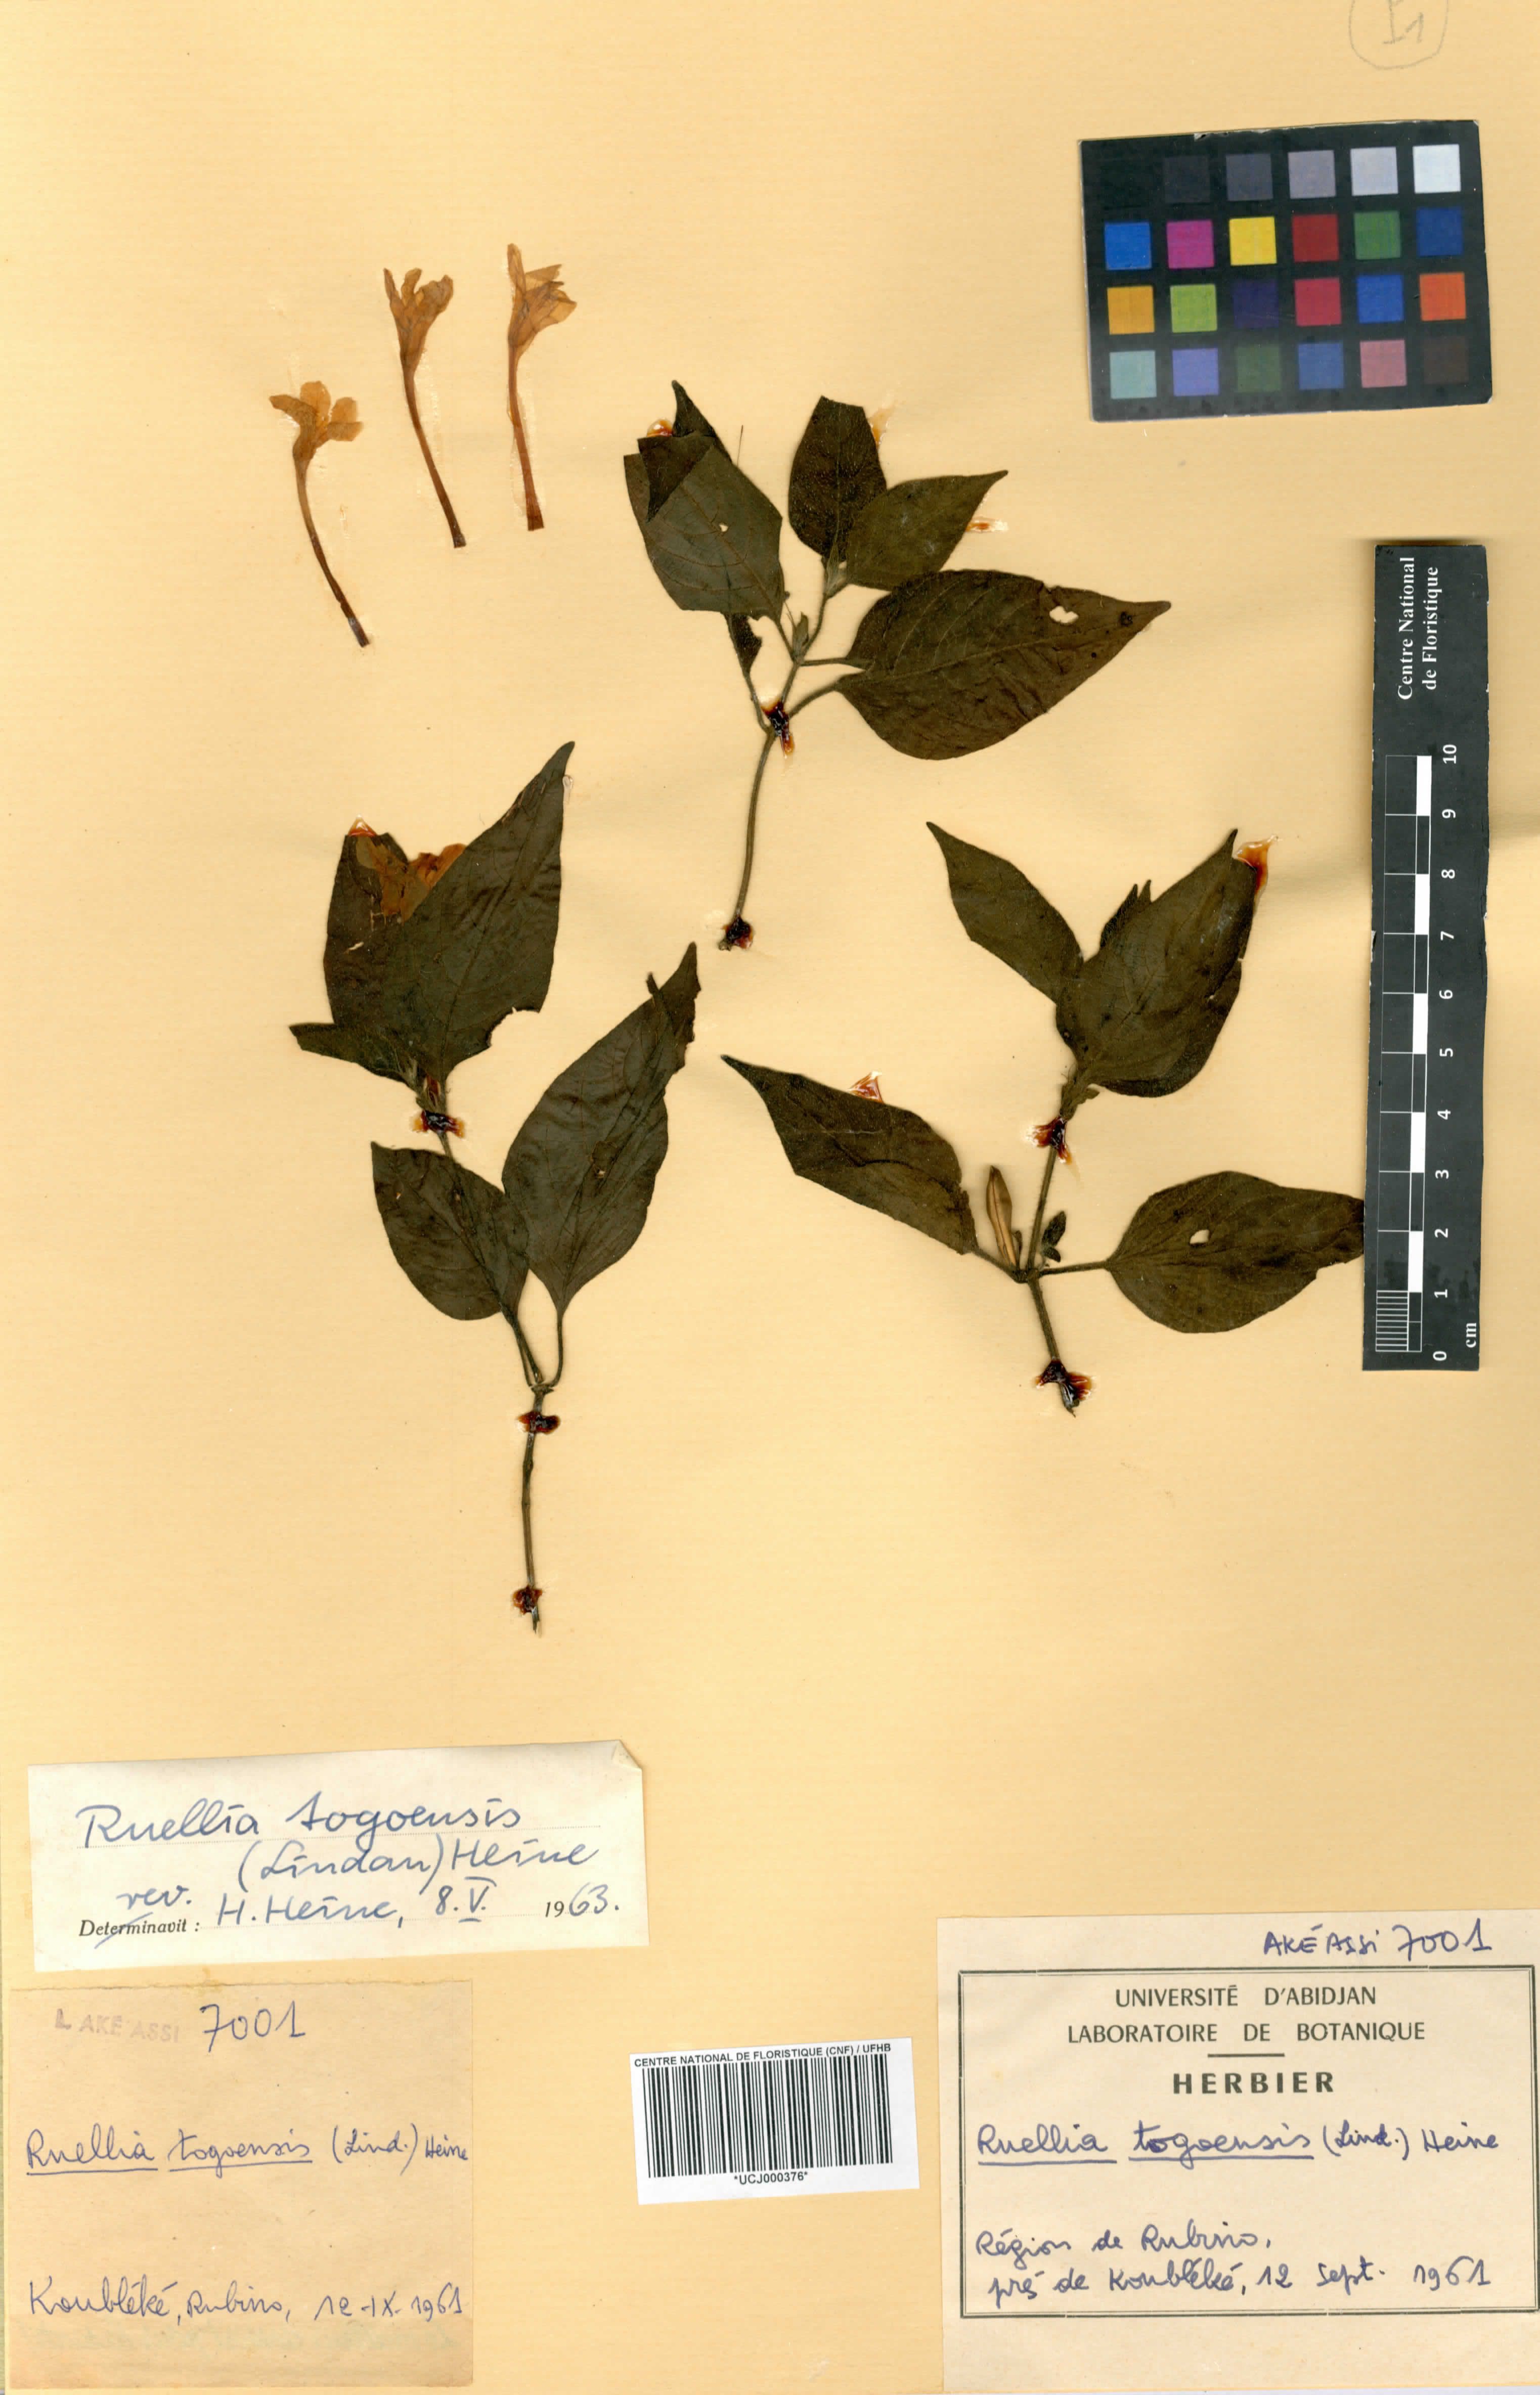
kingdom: Plantae
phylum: Tracheophyta
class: Magnoliopsida
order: Lamiales
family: Acanthaceae
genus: Ruellia
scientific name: Ruellia togoensis
